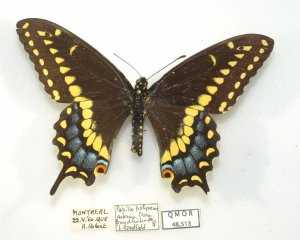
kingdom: Animalia
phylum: Arthropoda
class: Insecta
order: Lepidoptera
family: Papilionidae
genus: Papilio
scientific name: Papilio polyxenes
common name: Black Swallowtail
